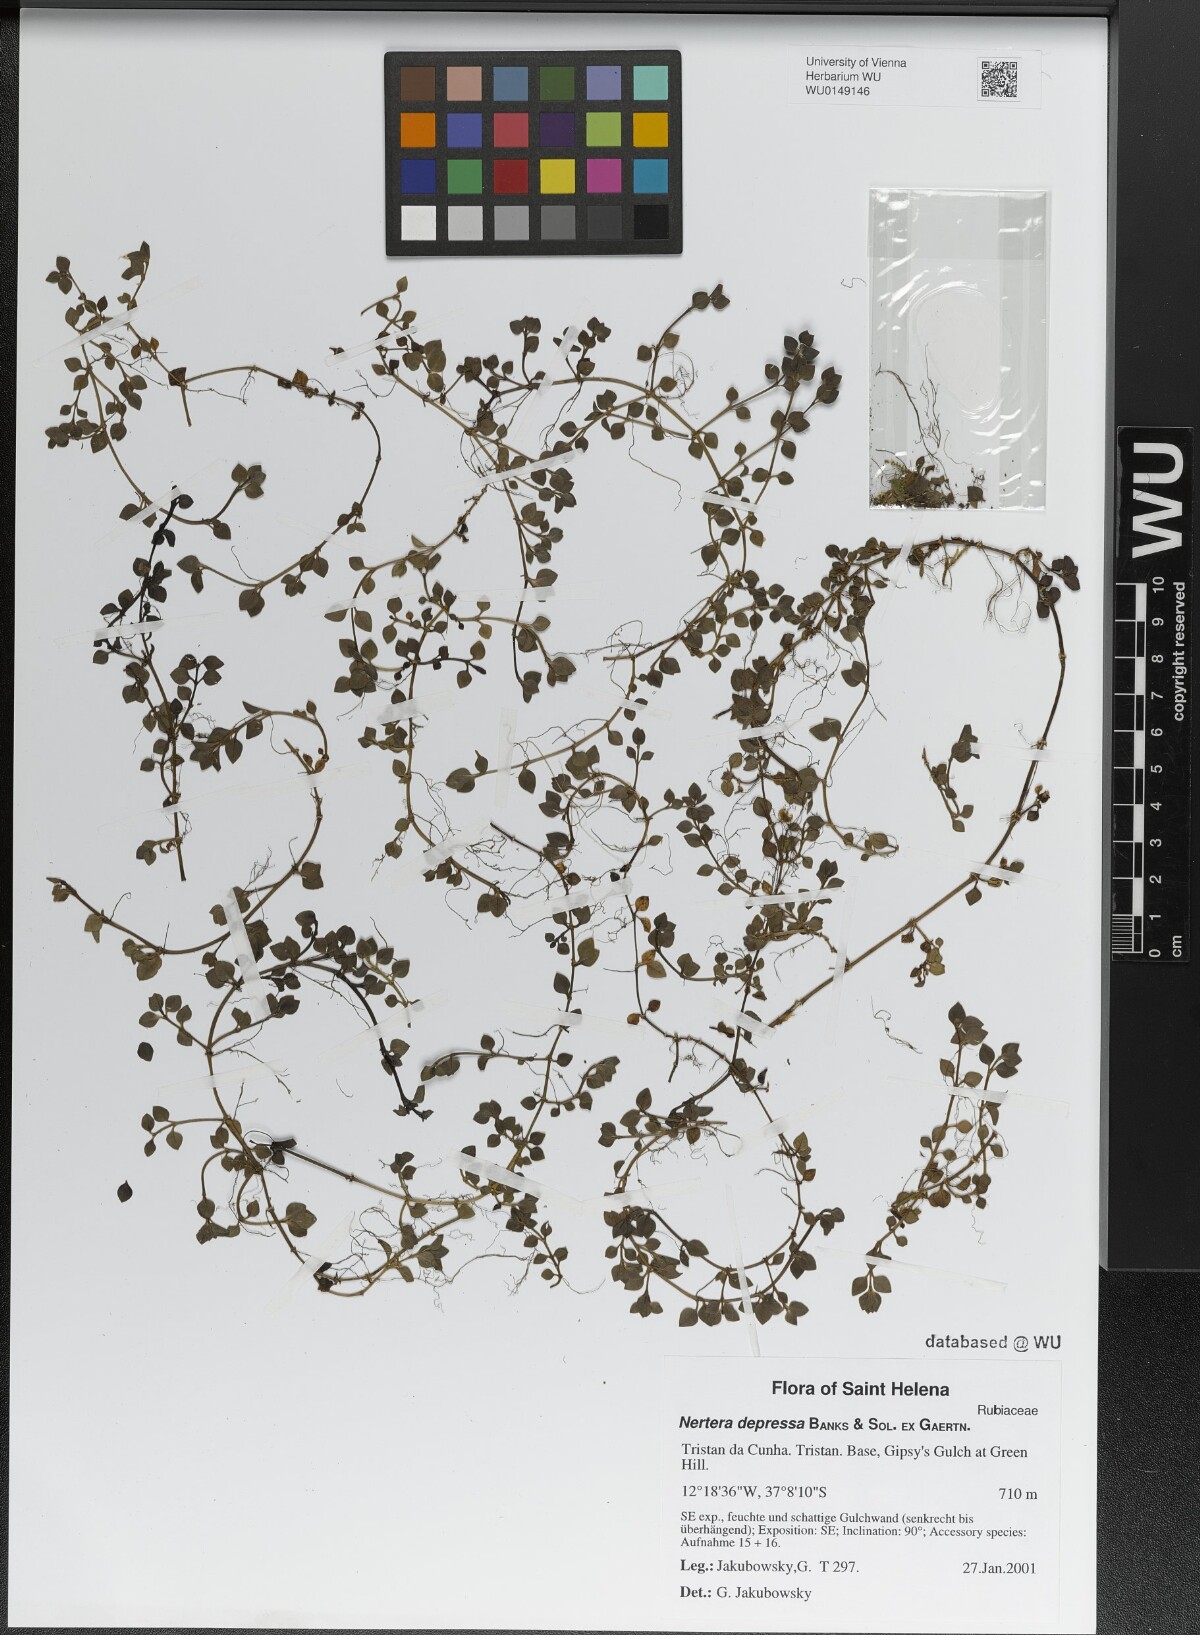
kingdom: Plantae
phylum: Tracheophyta
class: Magnoliopsida
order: Gentianales
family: Rubiaceae
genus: Nertera
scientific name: Nertera granadensis
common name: Beadplant
